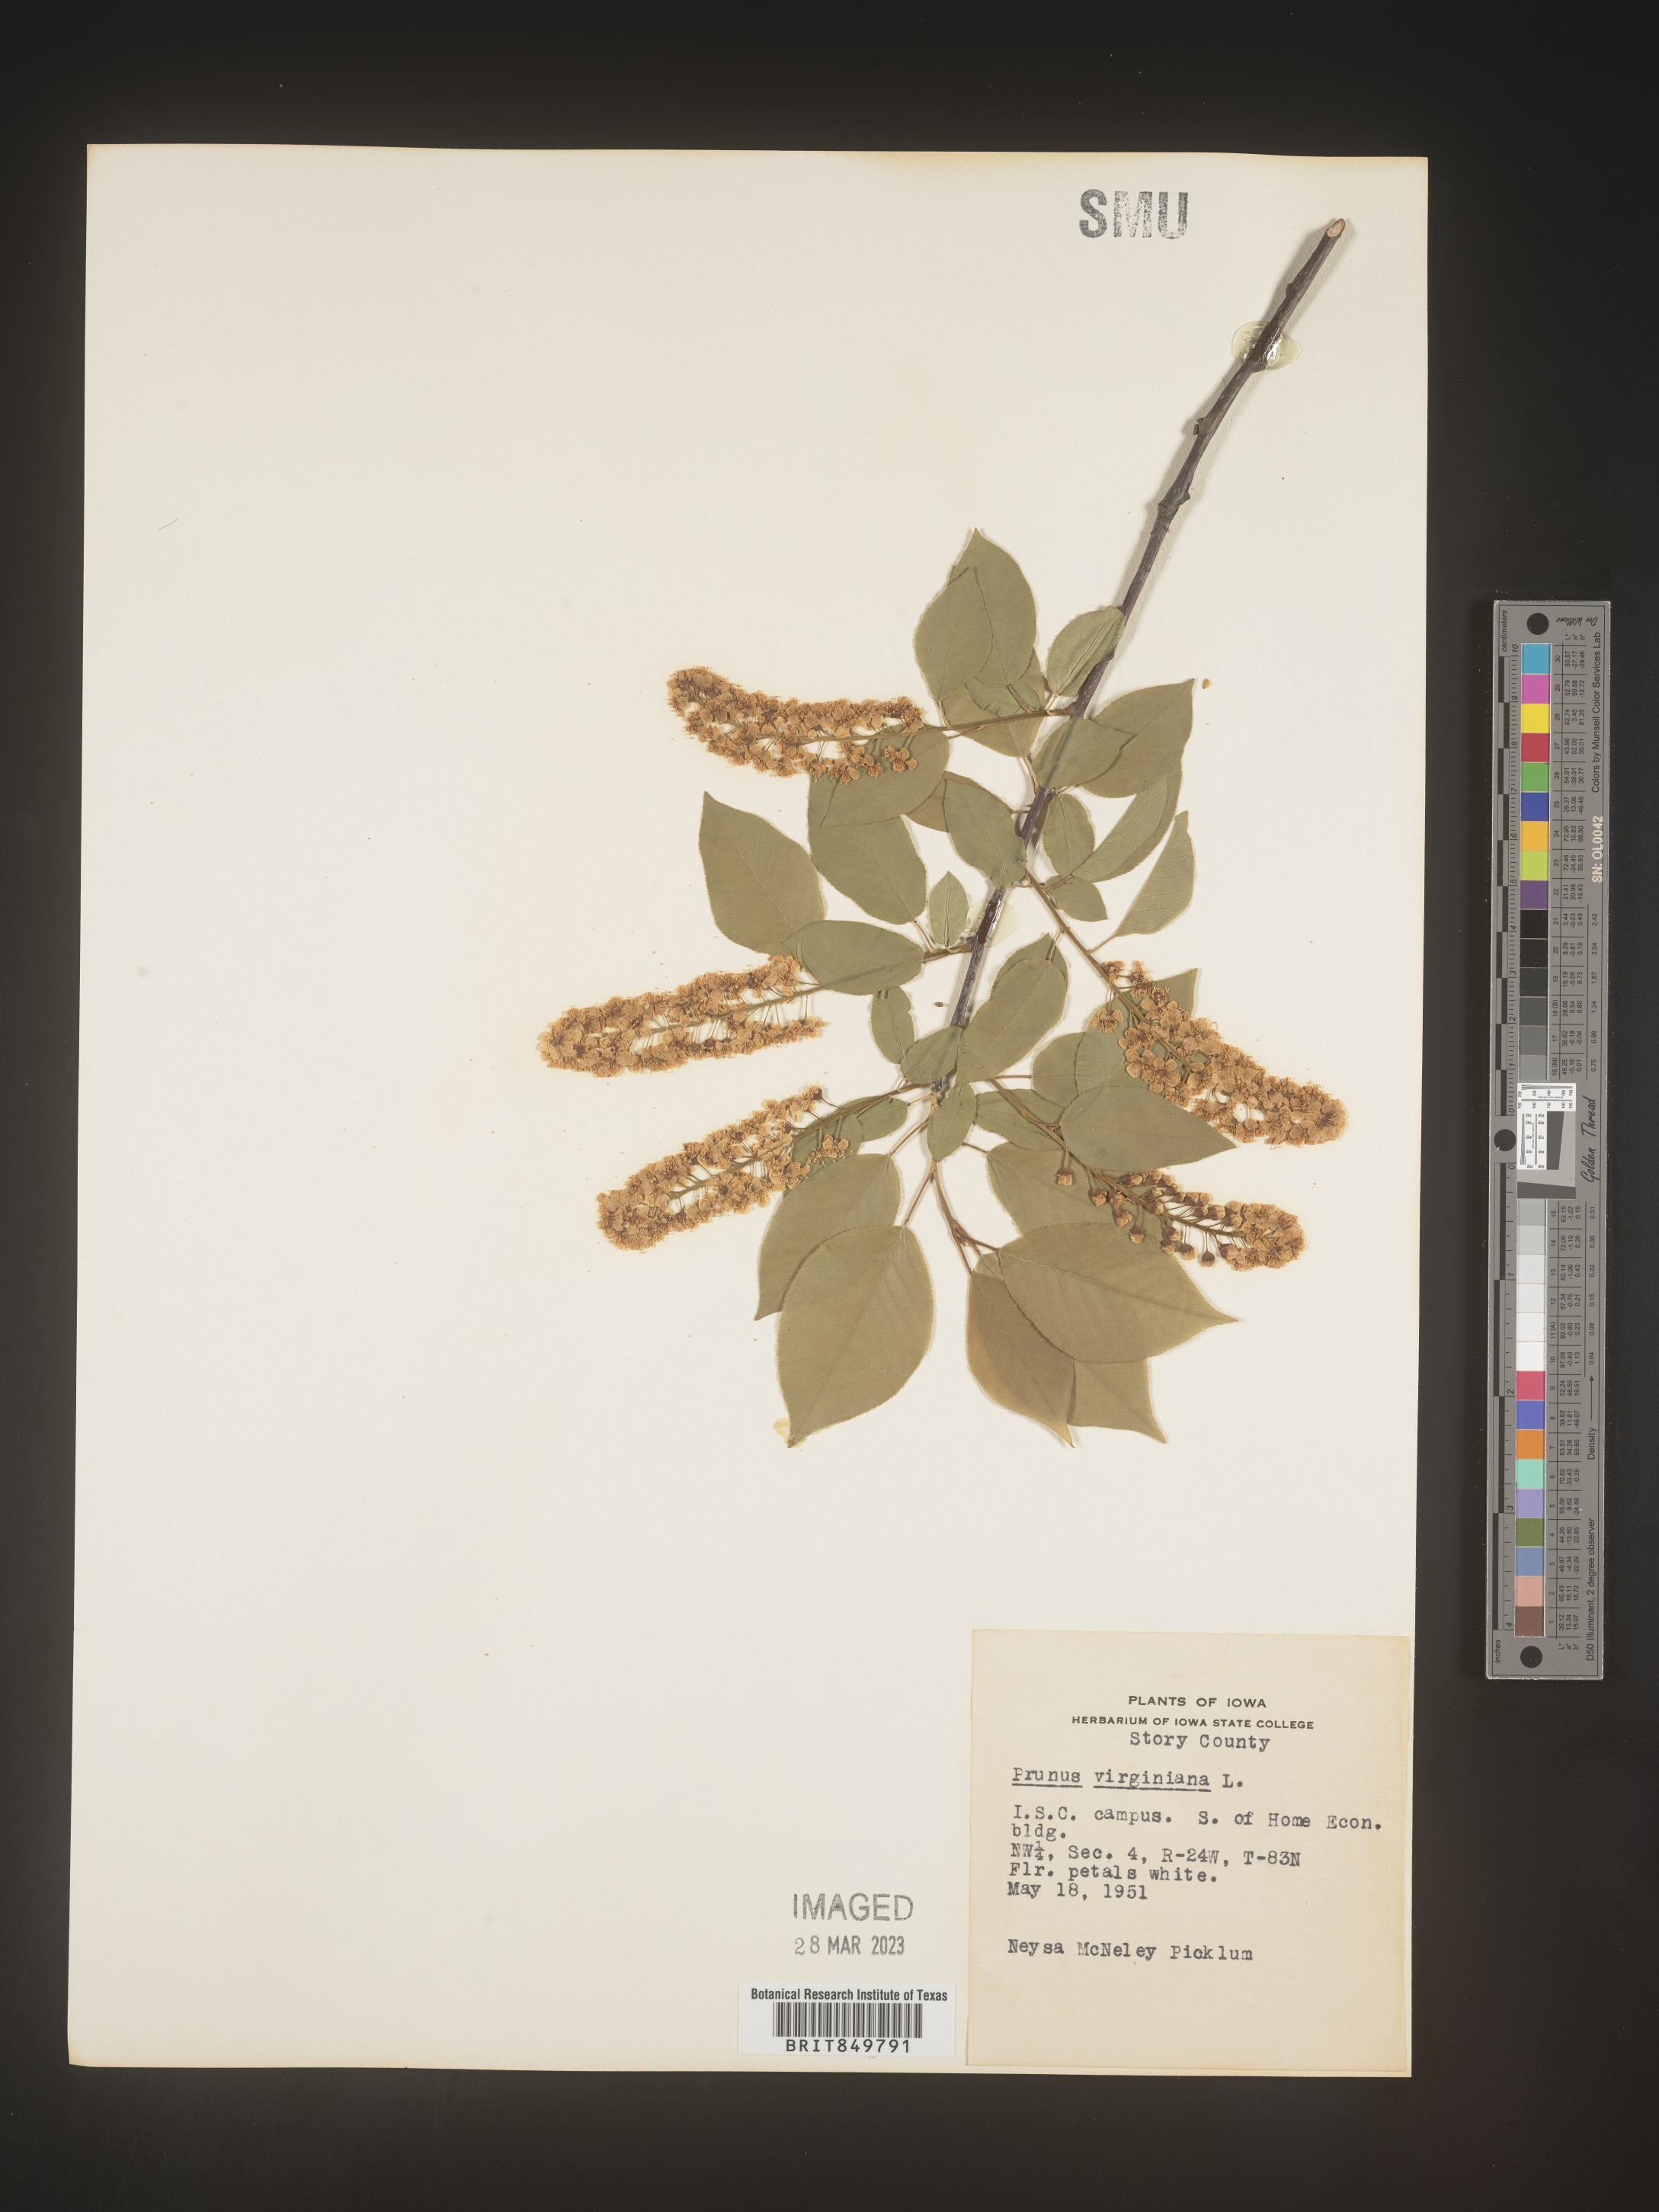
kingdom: Plantae
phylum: Tracheophyta
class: Magnoliopsida
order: Rosales
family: Rosaceae
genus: Prunus
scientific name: Prunus virginiana
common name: Chokecherry
